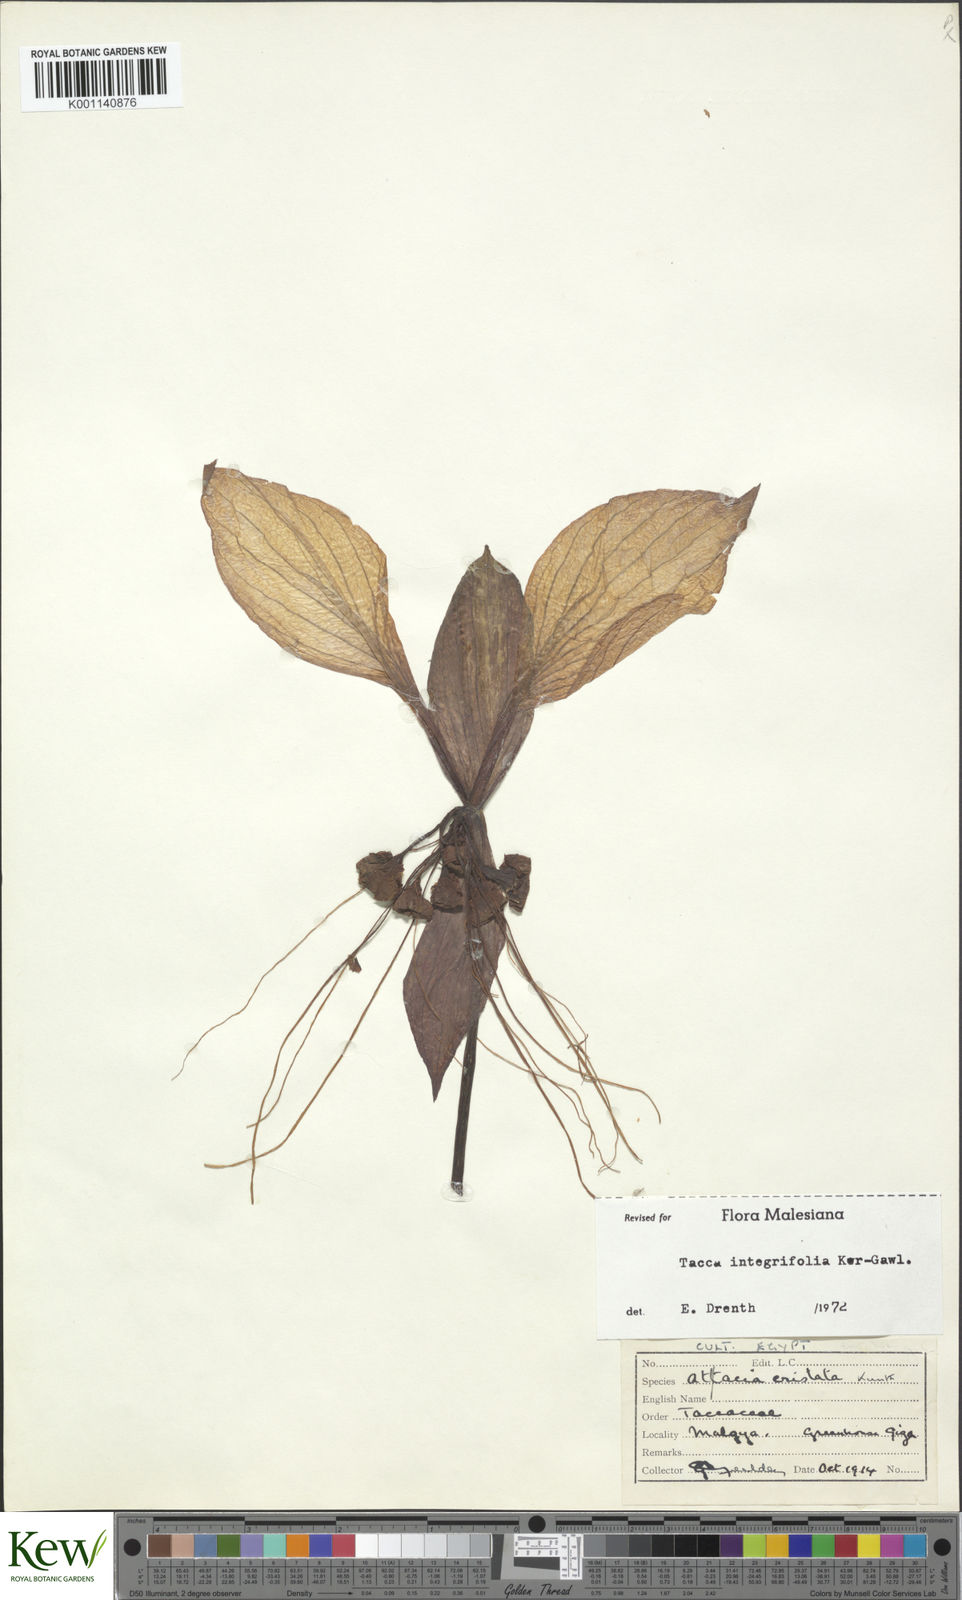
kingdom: Plantae
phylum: Tracheophyta
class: Liliopsida
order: Dioscoreales
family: Dioscoreaceae
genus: Tacca
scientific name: Tacca integrifolia
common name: Batplant
